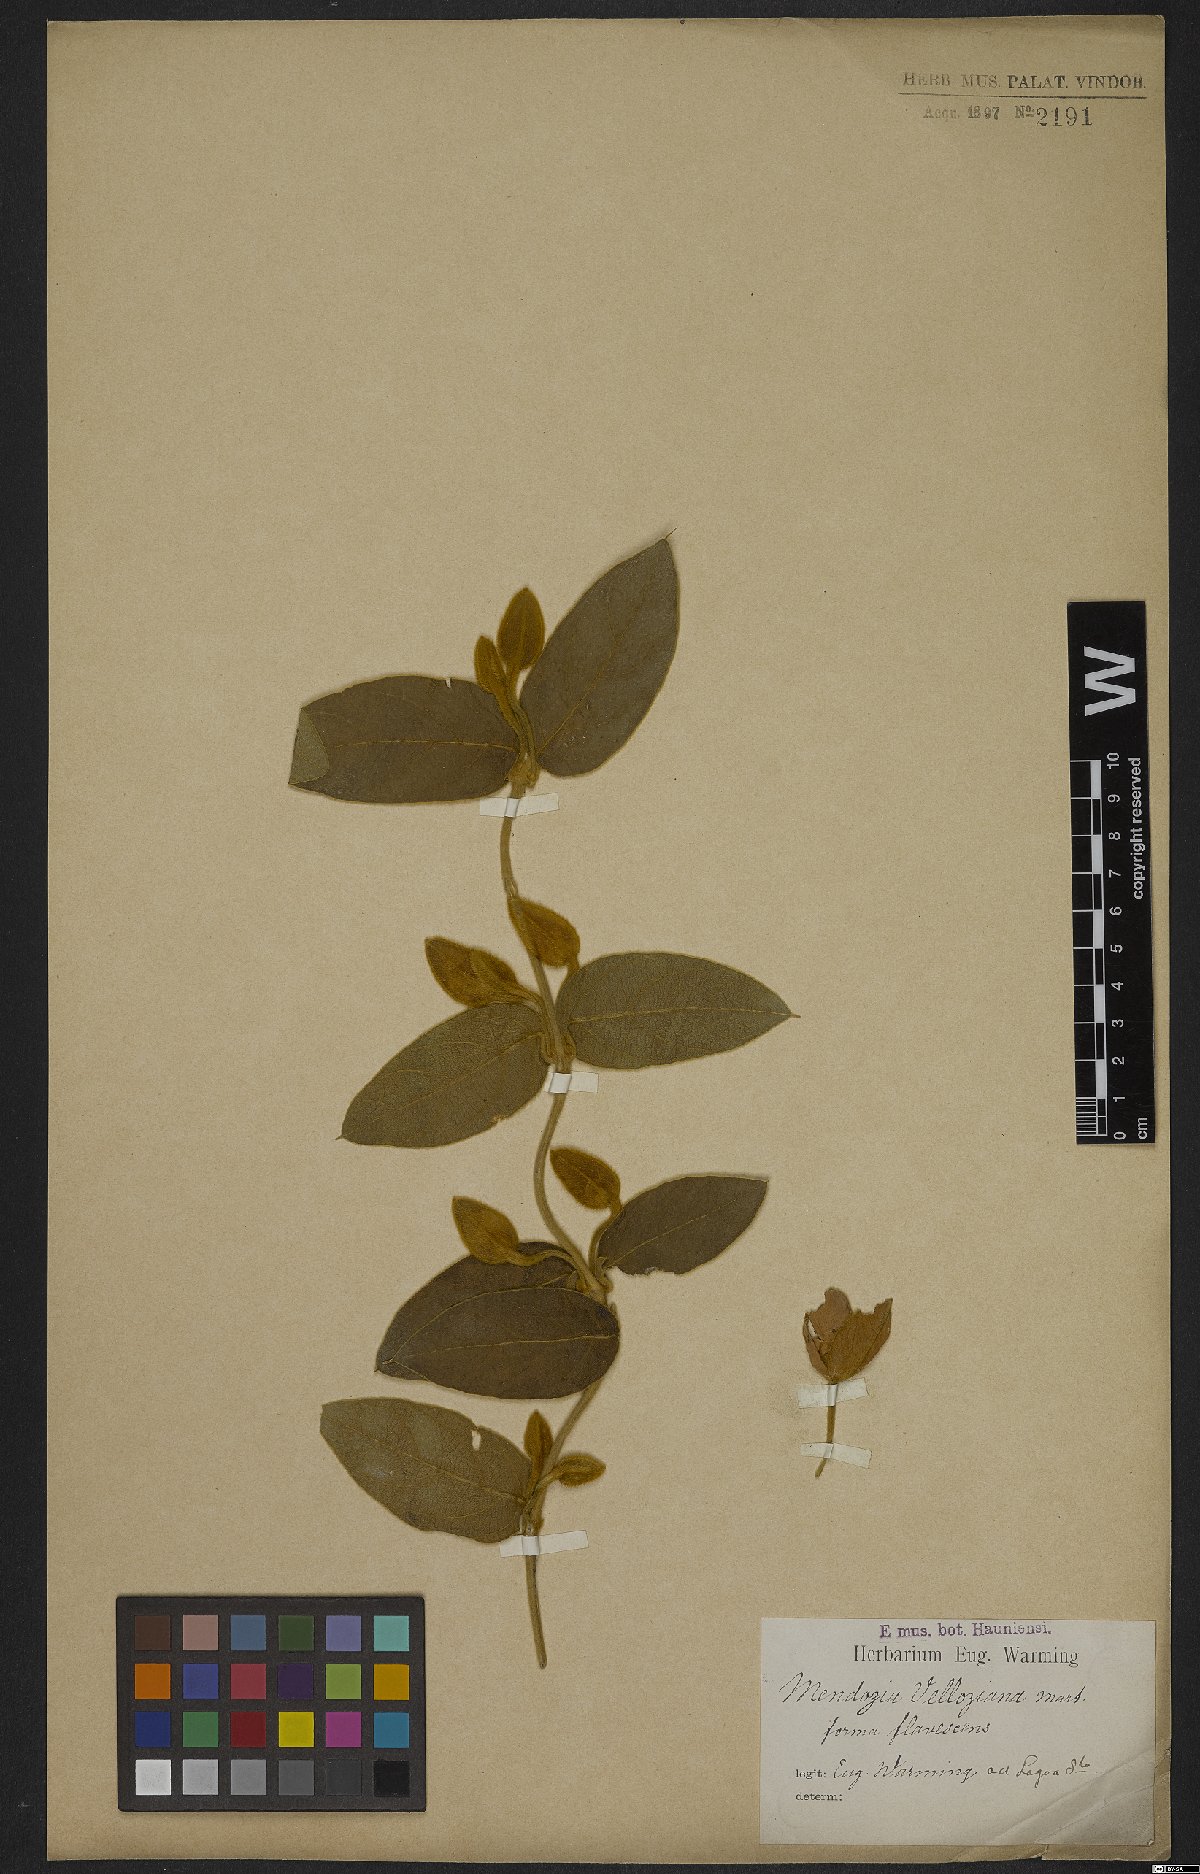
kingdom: Plantae
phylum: Tracheophyta
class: Magnoliopsida
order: Lamiales
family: Acanthaceae
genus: Mendoncia
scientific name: Mendoncia velloziana
